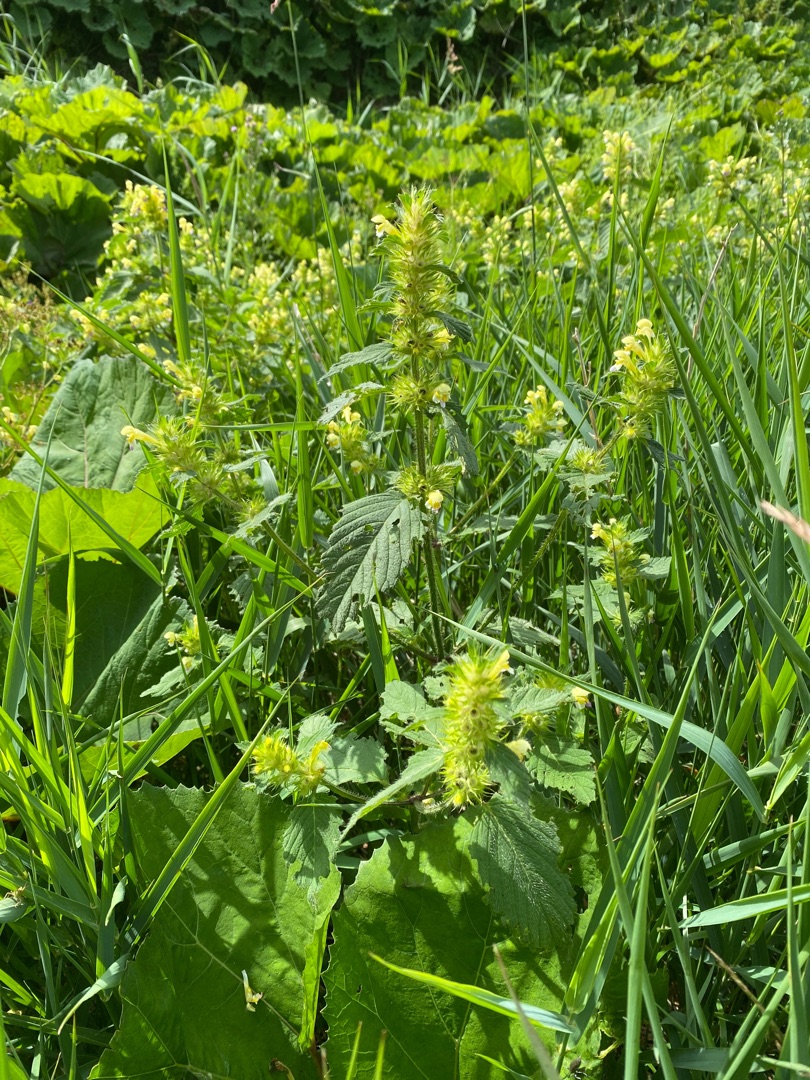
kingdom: Plantae
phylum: Tracheophyta
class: Magnoliopsida
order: Lamiales
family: Lamiaceae
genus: Galeopsis
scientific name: Galeopsis speciosa
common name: Hamp-hanekro
